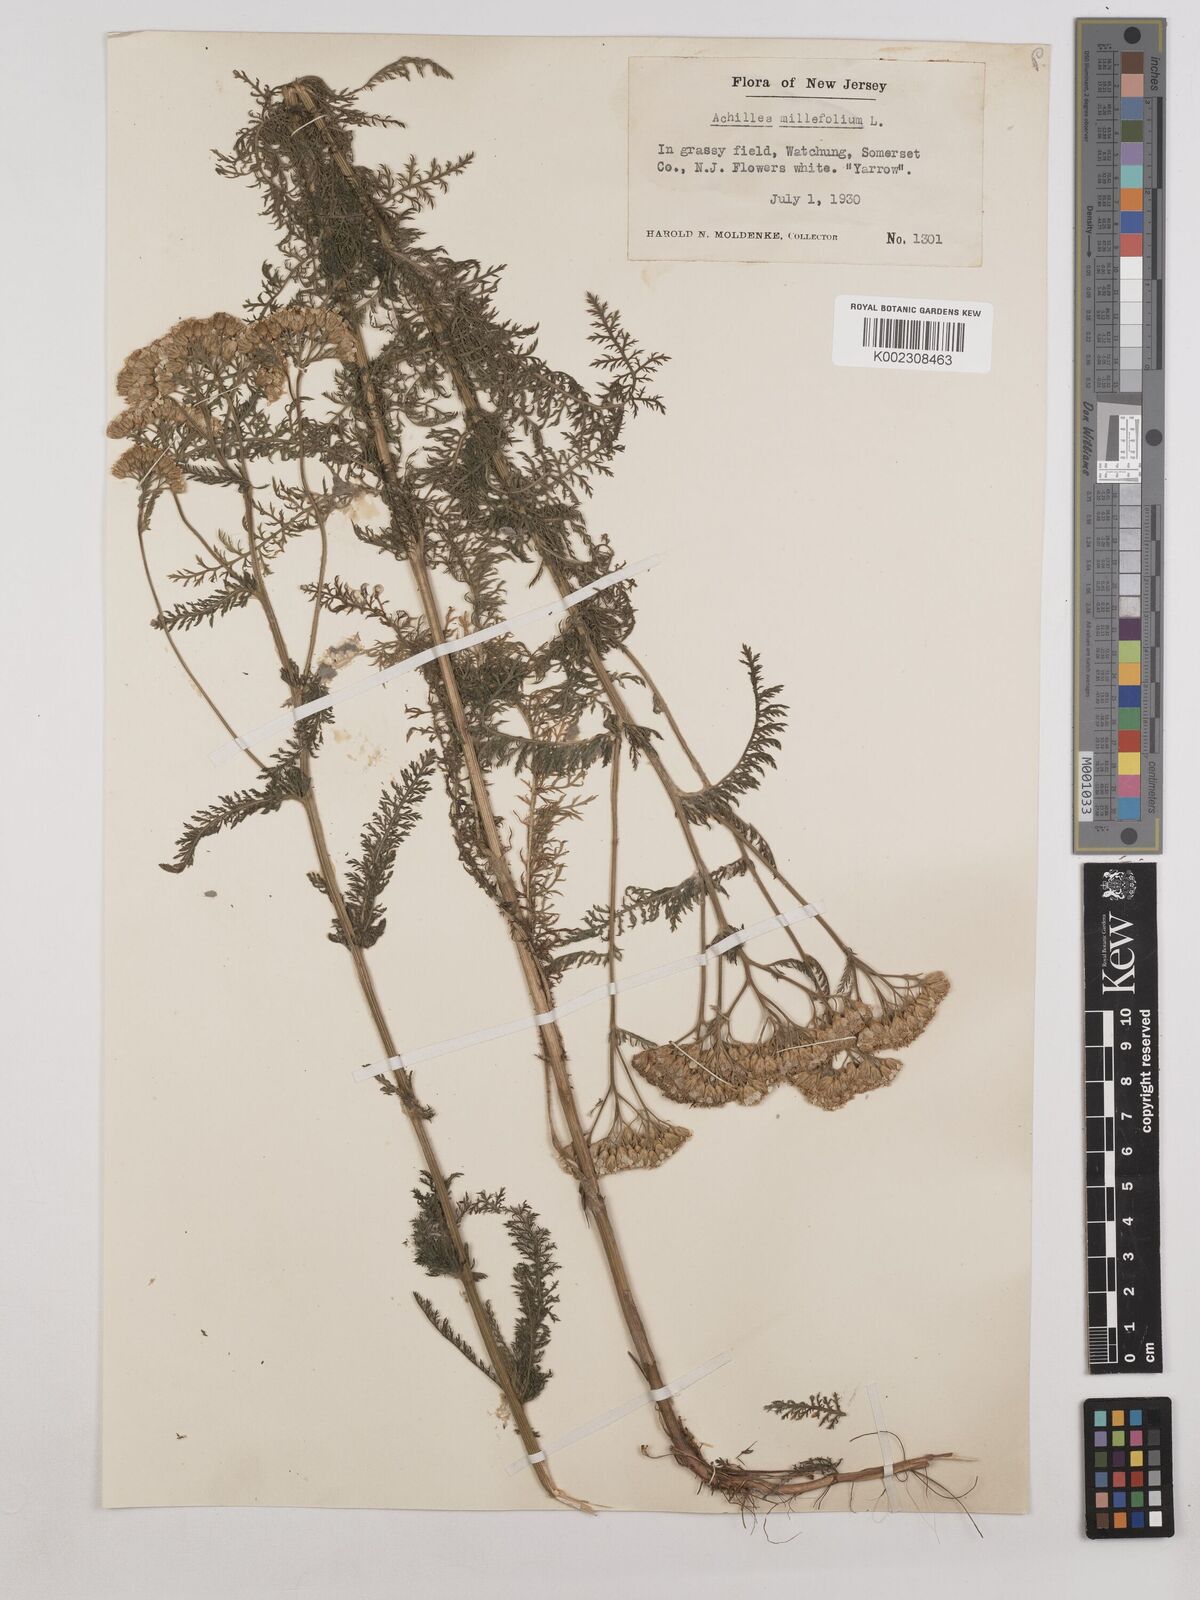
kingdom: Plantae
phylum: Tracheophyta
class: Magnoliopsida
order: Asterales
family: Asteraceae
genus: Achillea
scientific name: Achillea millefolium
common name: Yarrow
